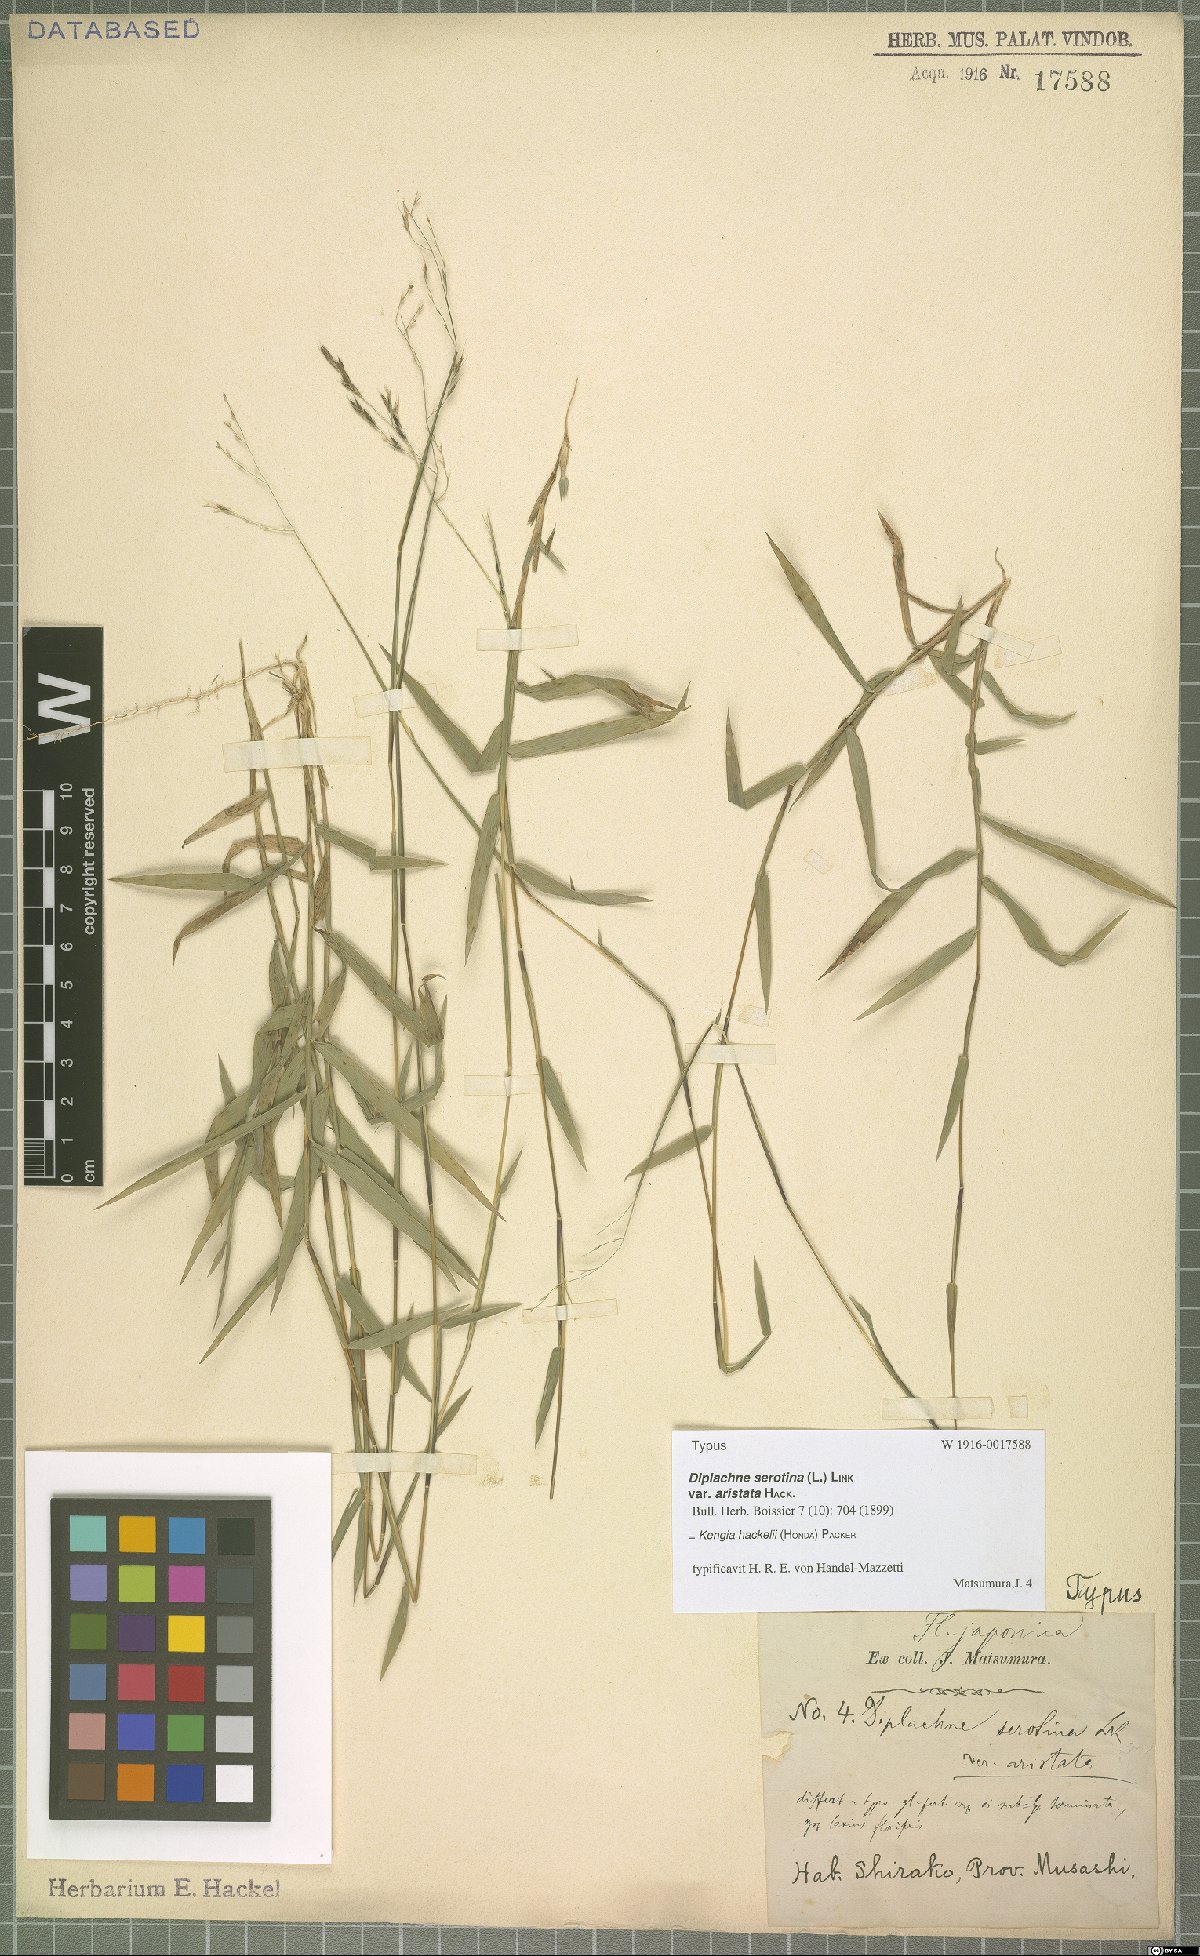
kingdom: Plantae
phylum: Tracheophyta
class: Liliopsida
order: Poales
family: Poaceae
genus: Cleistogenes
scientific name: Cleistogenes hackelii
